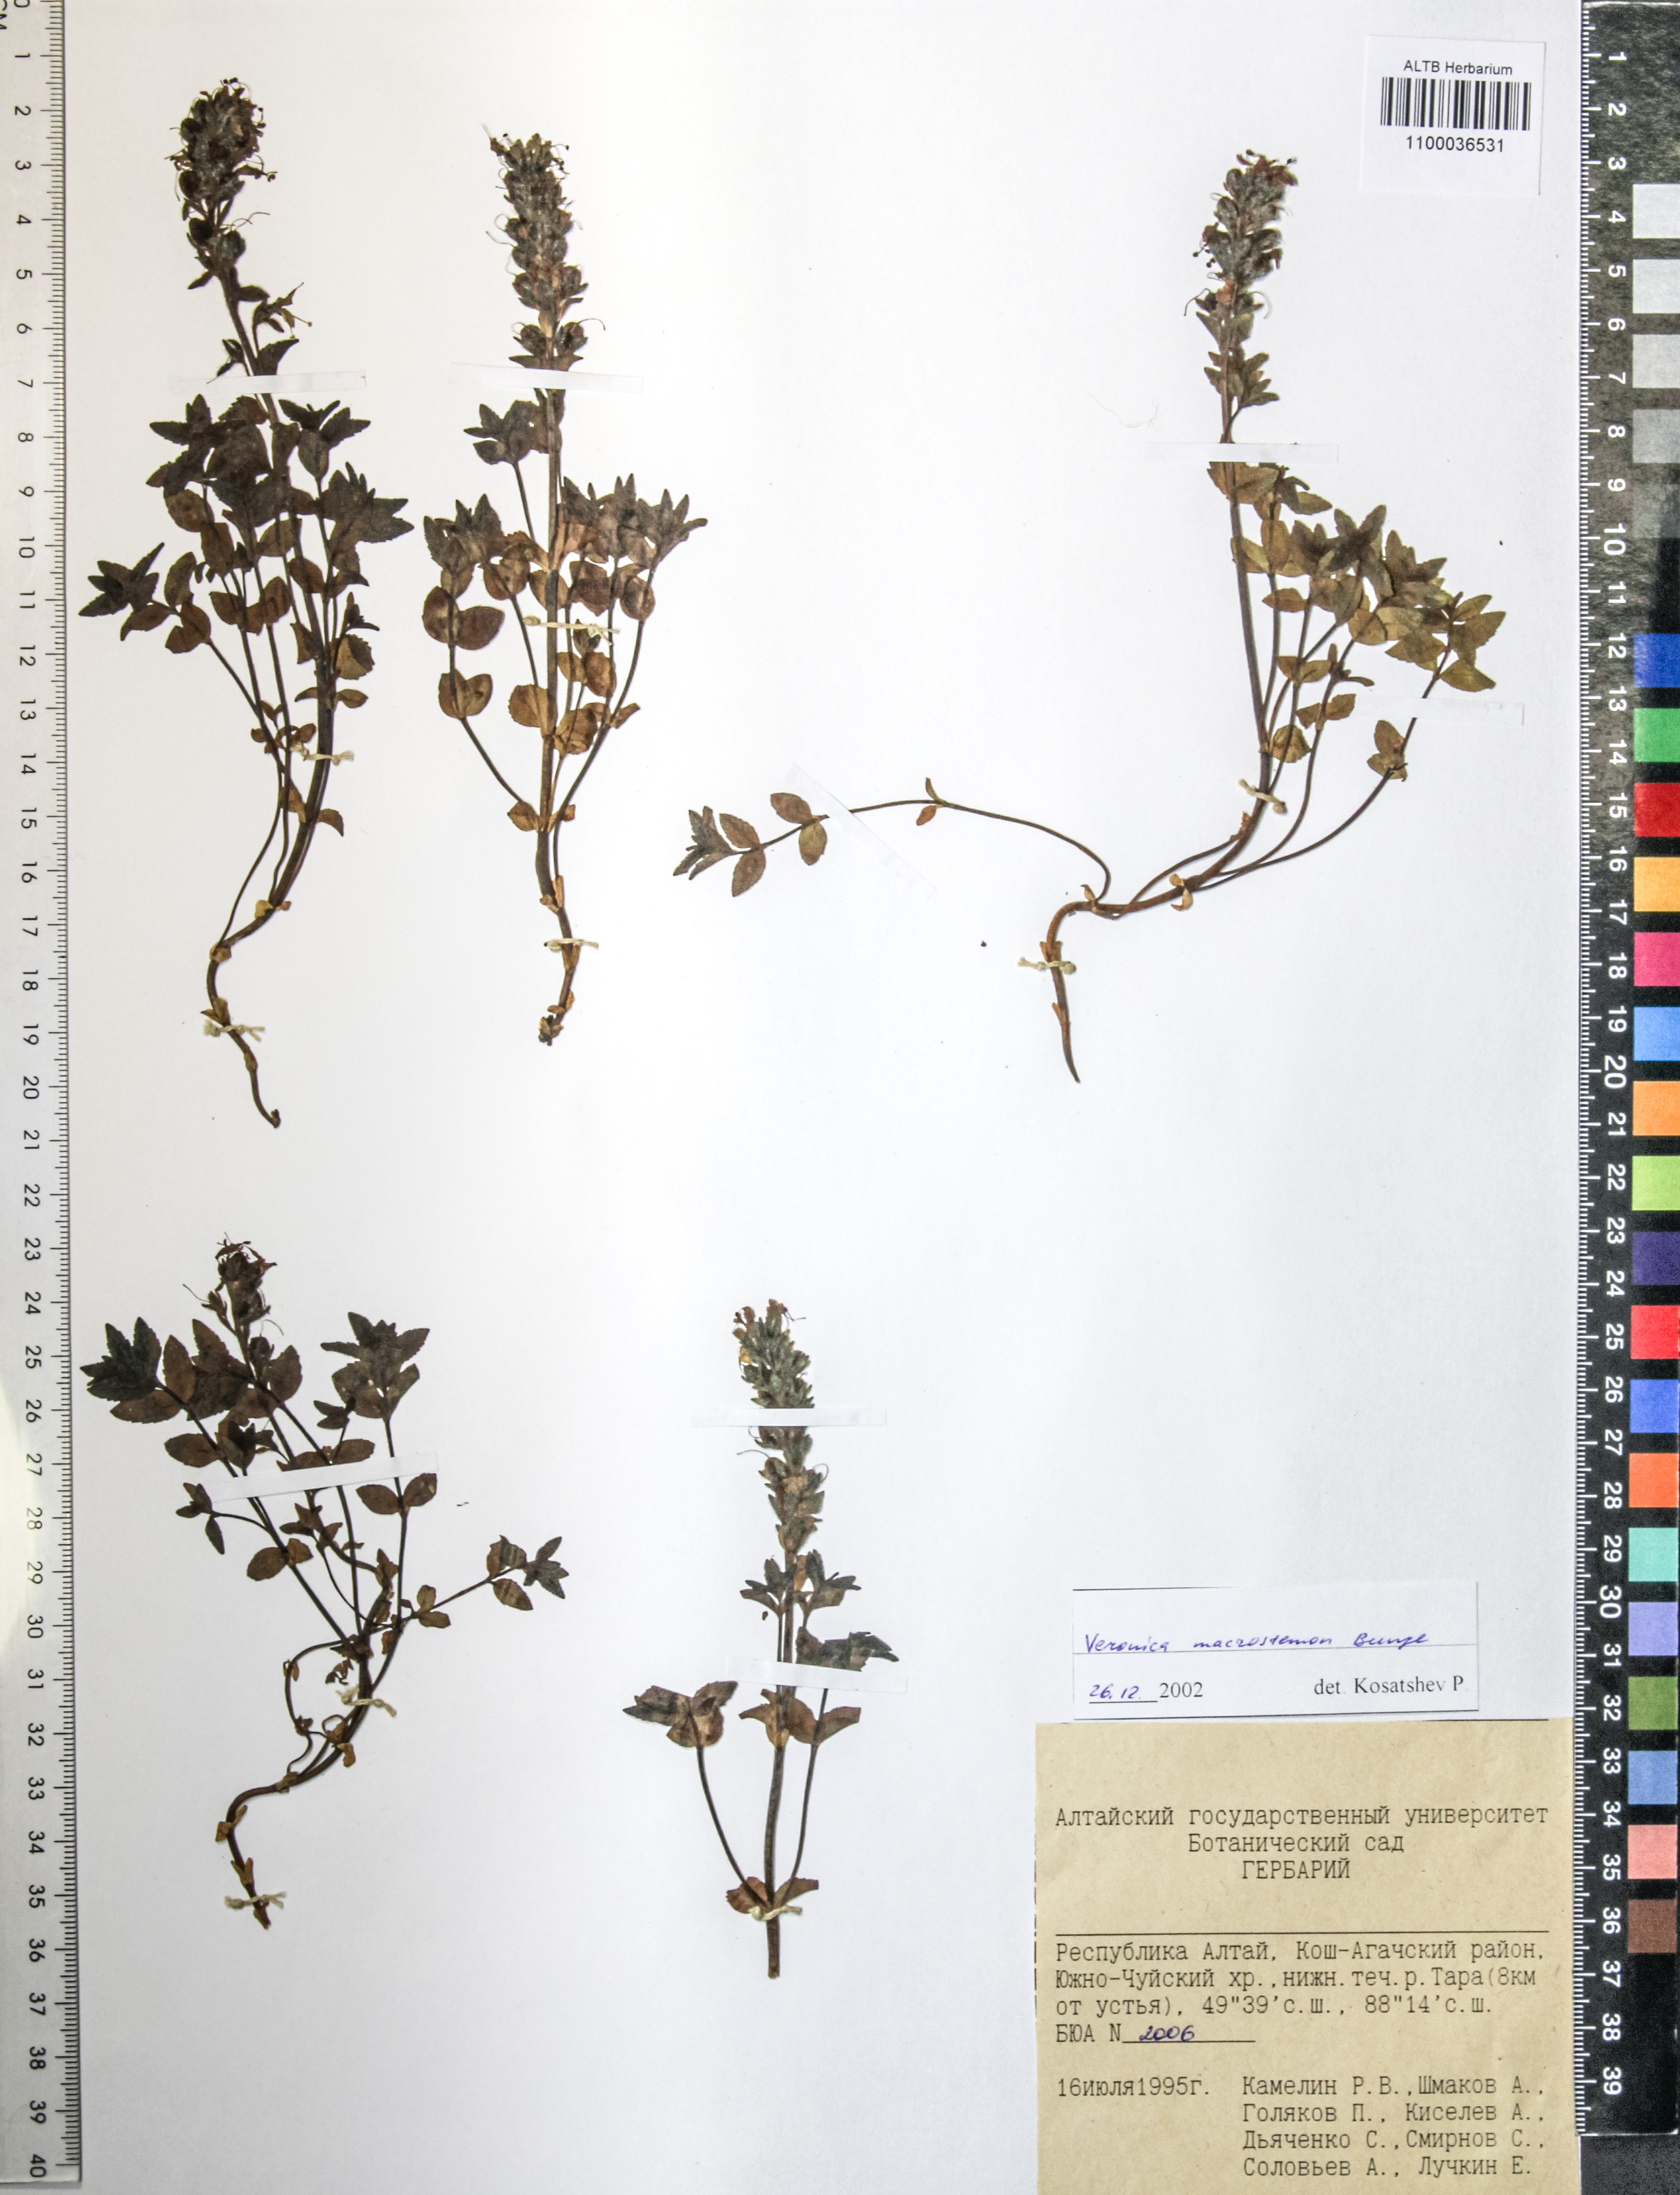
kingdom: Plantae
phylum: Tracheophyta
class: Magnoliopsida
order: Lamiales
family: Plantaginaceae
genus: Veronica
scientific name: Veronica macrostemon
